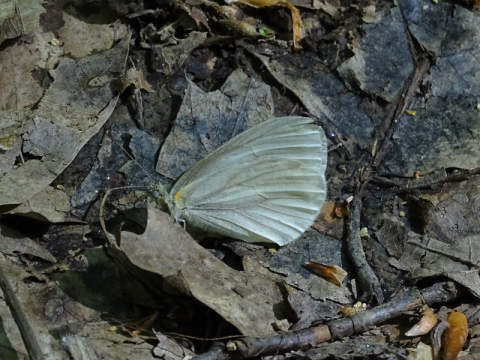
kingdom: Animalia
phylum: Arthropoda
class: Insecta
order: Lepidoptera
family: Pieridae
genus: Pieris
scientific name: Pieris virginiensis
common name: West Virginia White
